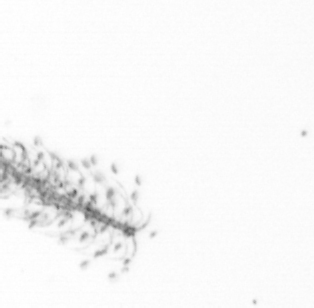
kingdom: Chromista
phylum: Ochrophyta
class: Bacillariophyceae
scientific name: Bacillariophyceae
